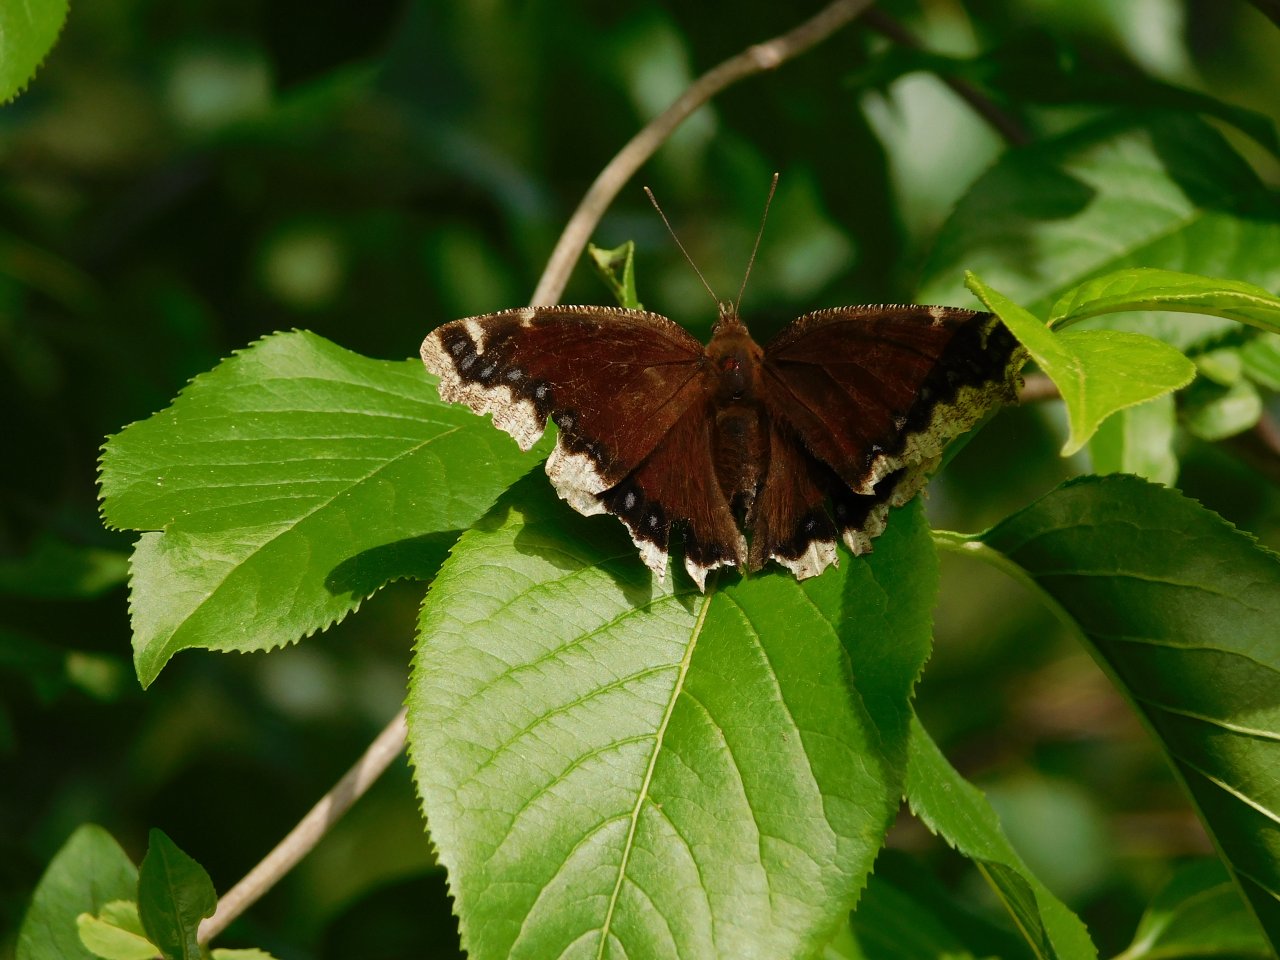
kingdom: Animalia
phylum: Arthropoda
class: Insecta
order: Lepidoptera
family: Nymphalidae
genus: Nymphalis
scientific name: Nymphalis antiopa
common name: Mourning Cloak
